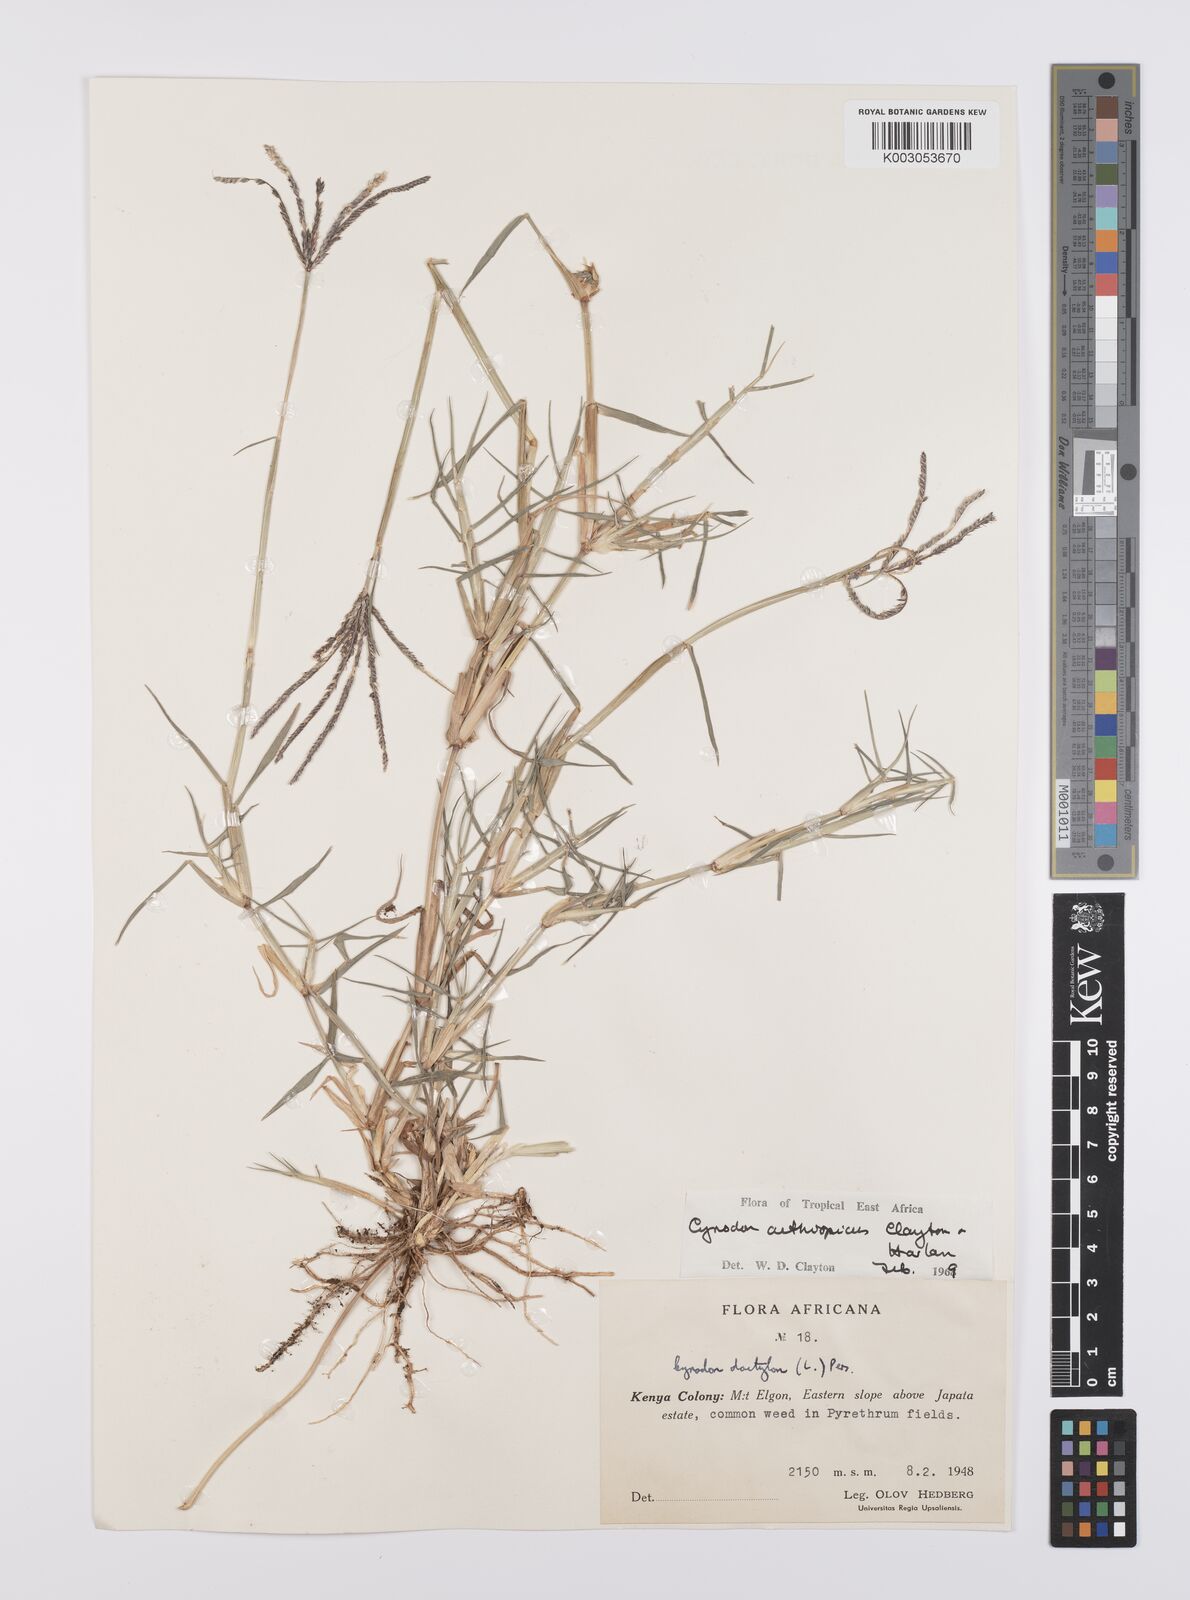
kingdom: Plantae
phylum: Tracheophyta
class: Liliopsida
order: Poales
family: Poaceae
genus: Cynodon
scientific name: Cynodon aethiopicus
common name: Ethiopian dogstooth grass
